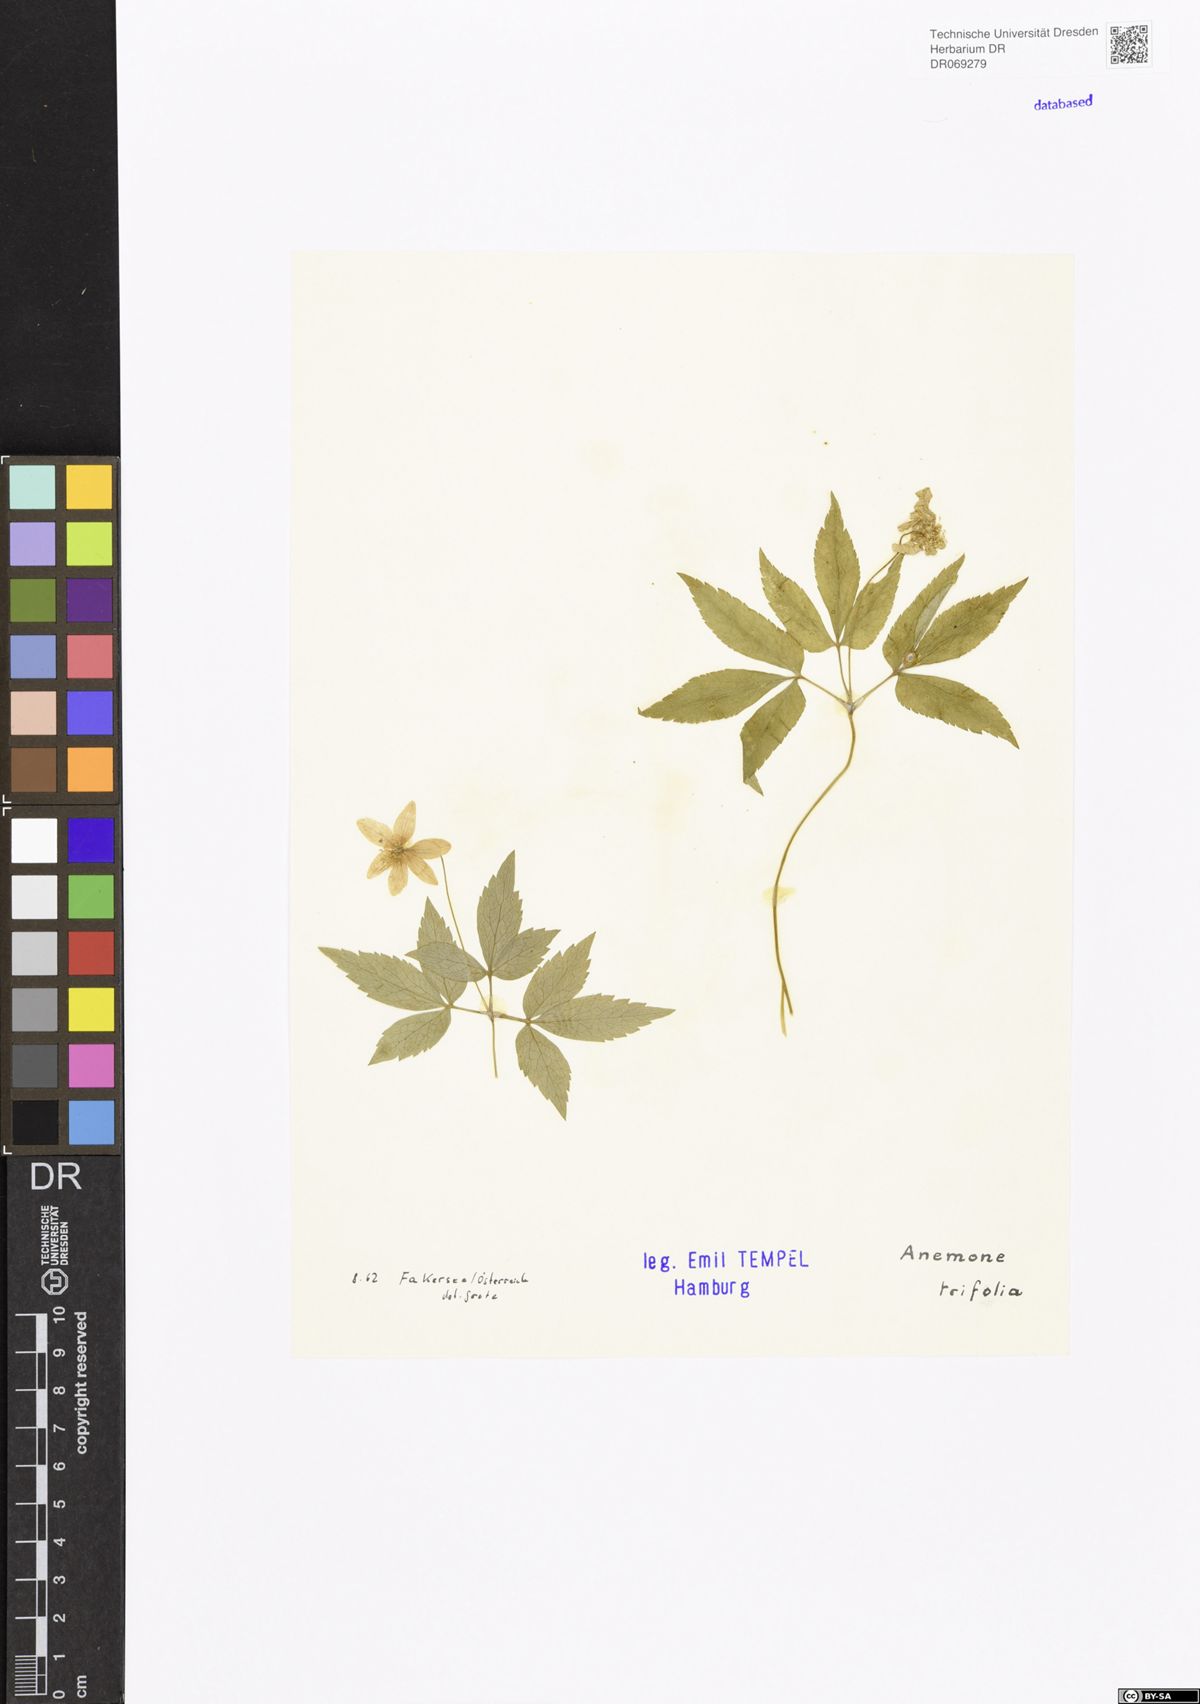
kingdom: Plantae
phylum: Tracheophyta
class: Magnoliopsida
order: Ranunculales
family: Ranunculaceae
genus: Anemone
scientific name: Anemone trifolia
